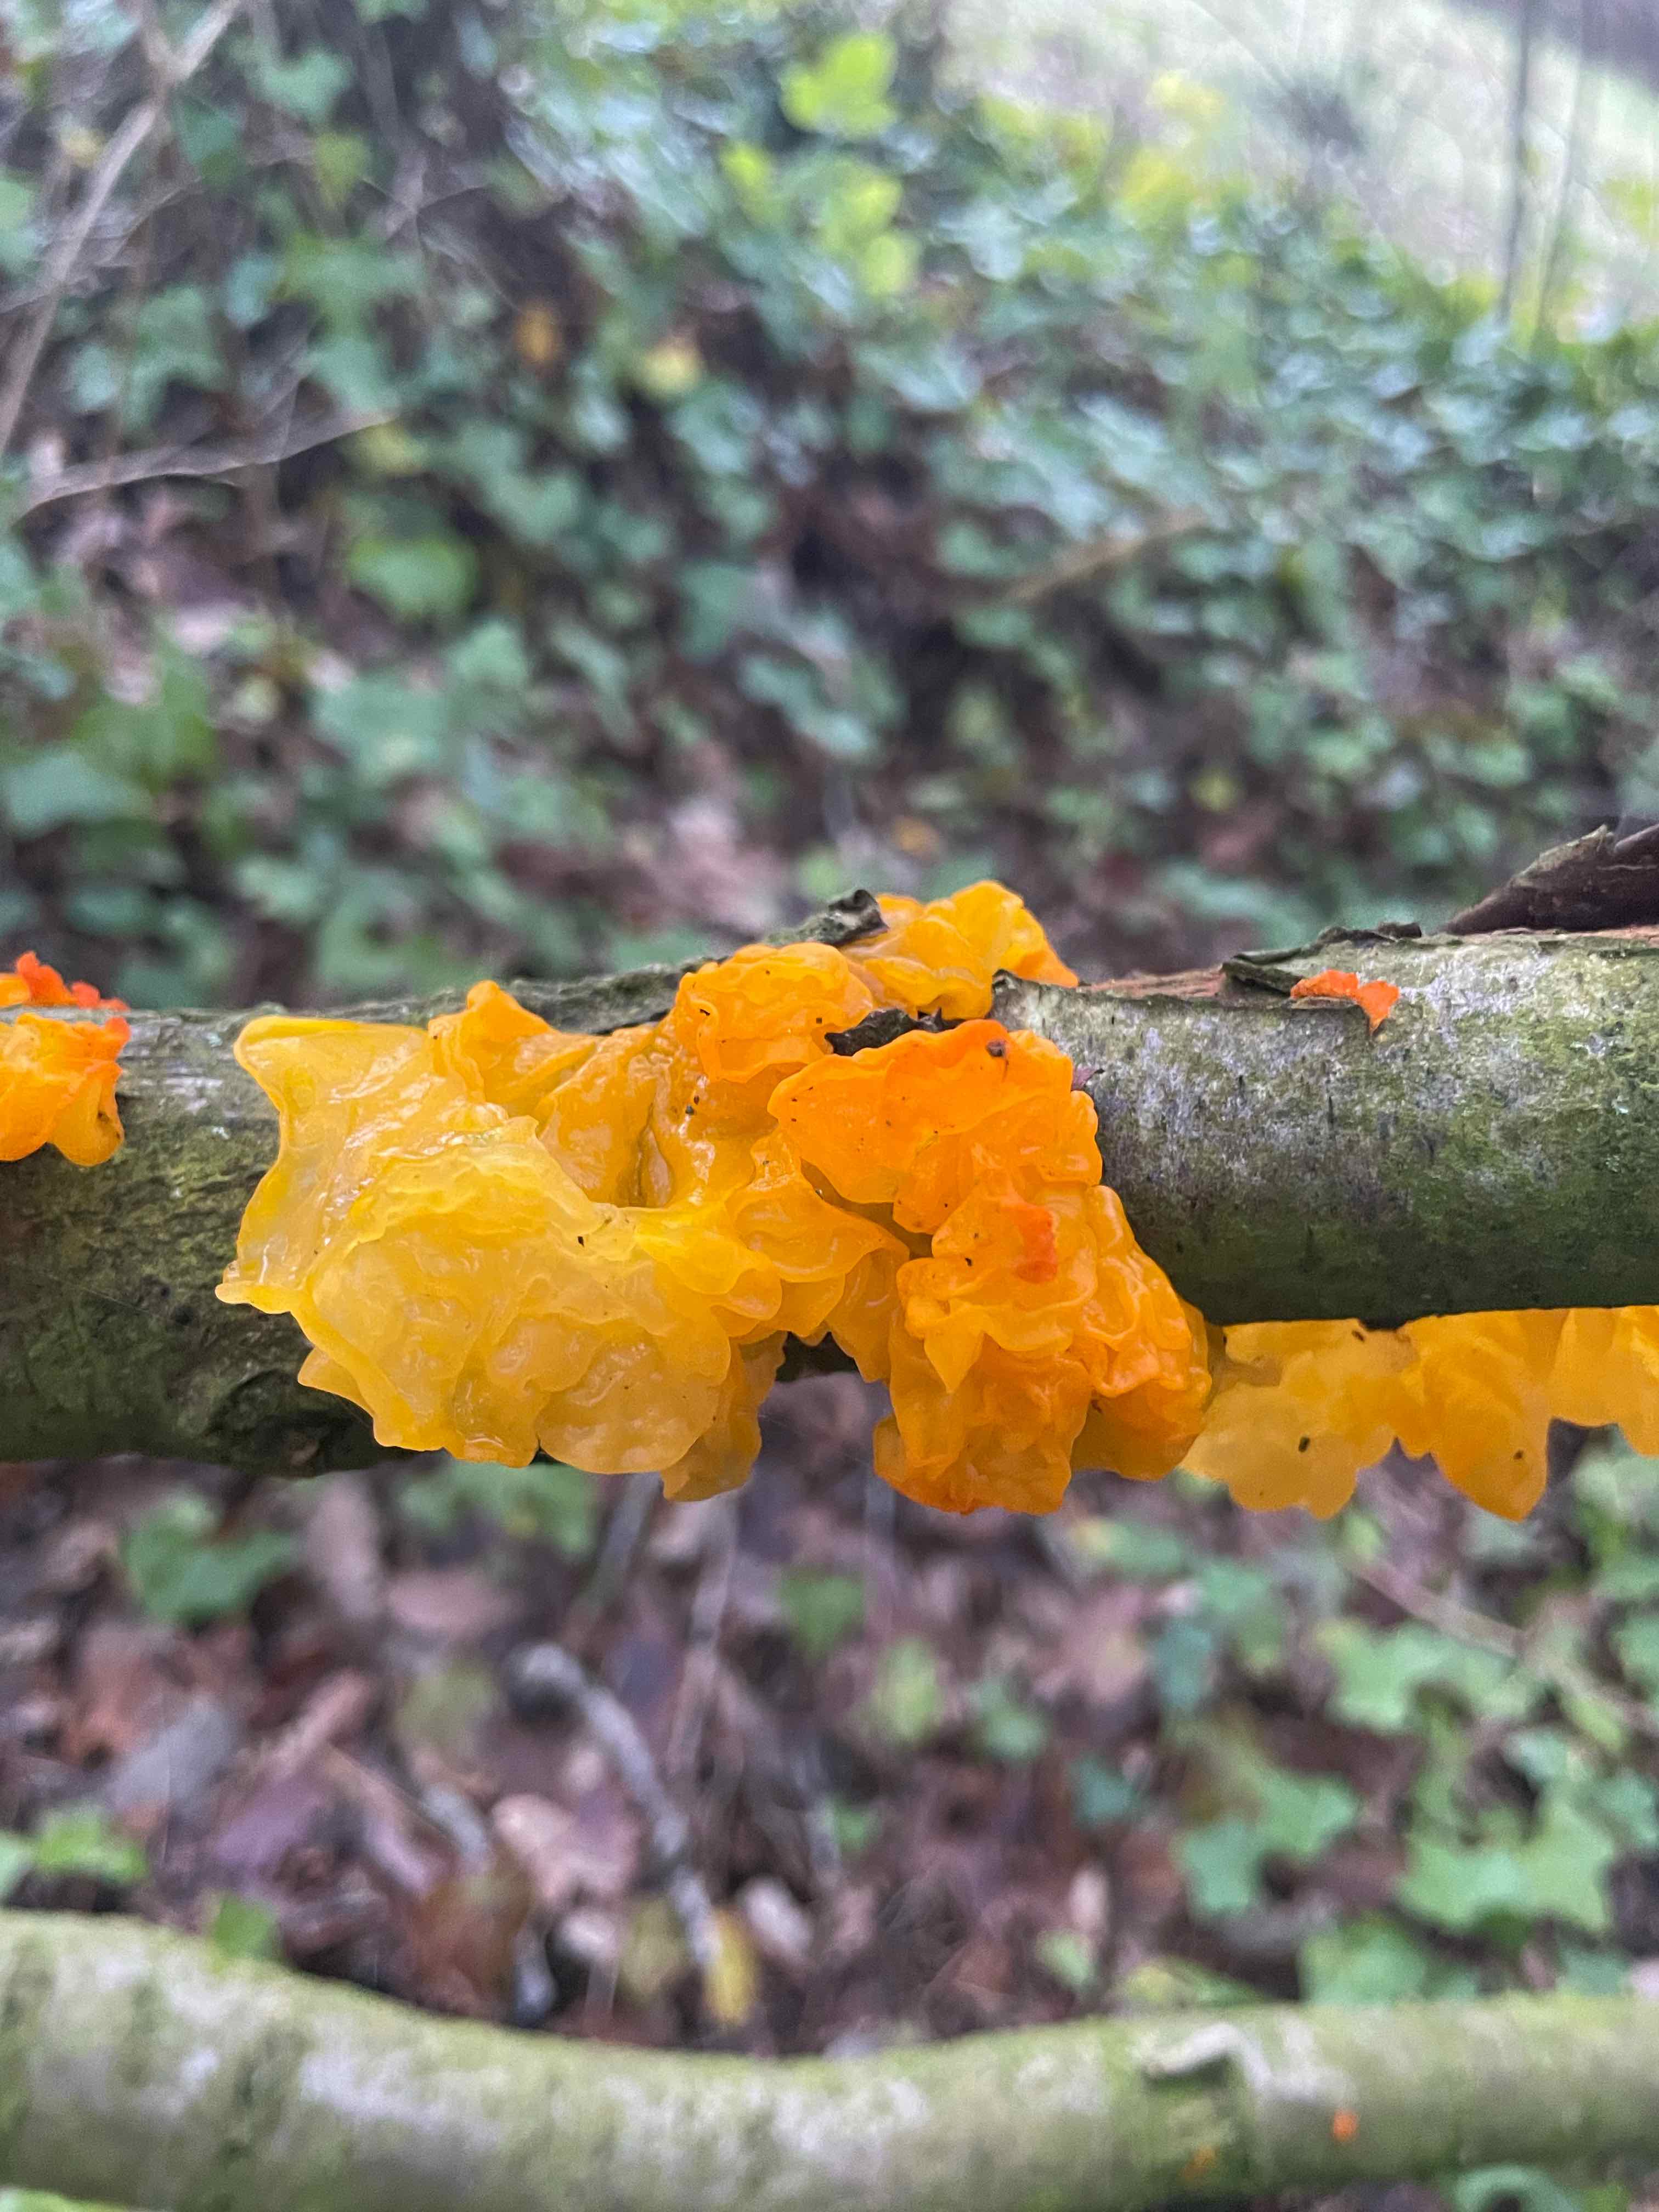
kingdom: Fungi
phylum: Basidiomycota
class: Tremellomycetes
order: Tremellales
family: Tremellaceae
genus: Tremella
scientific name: Tremella mesenterica
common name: gul bævresvamp
